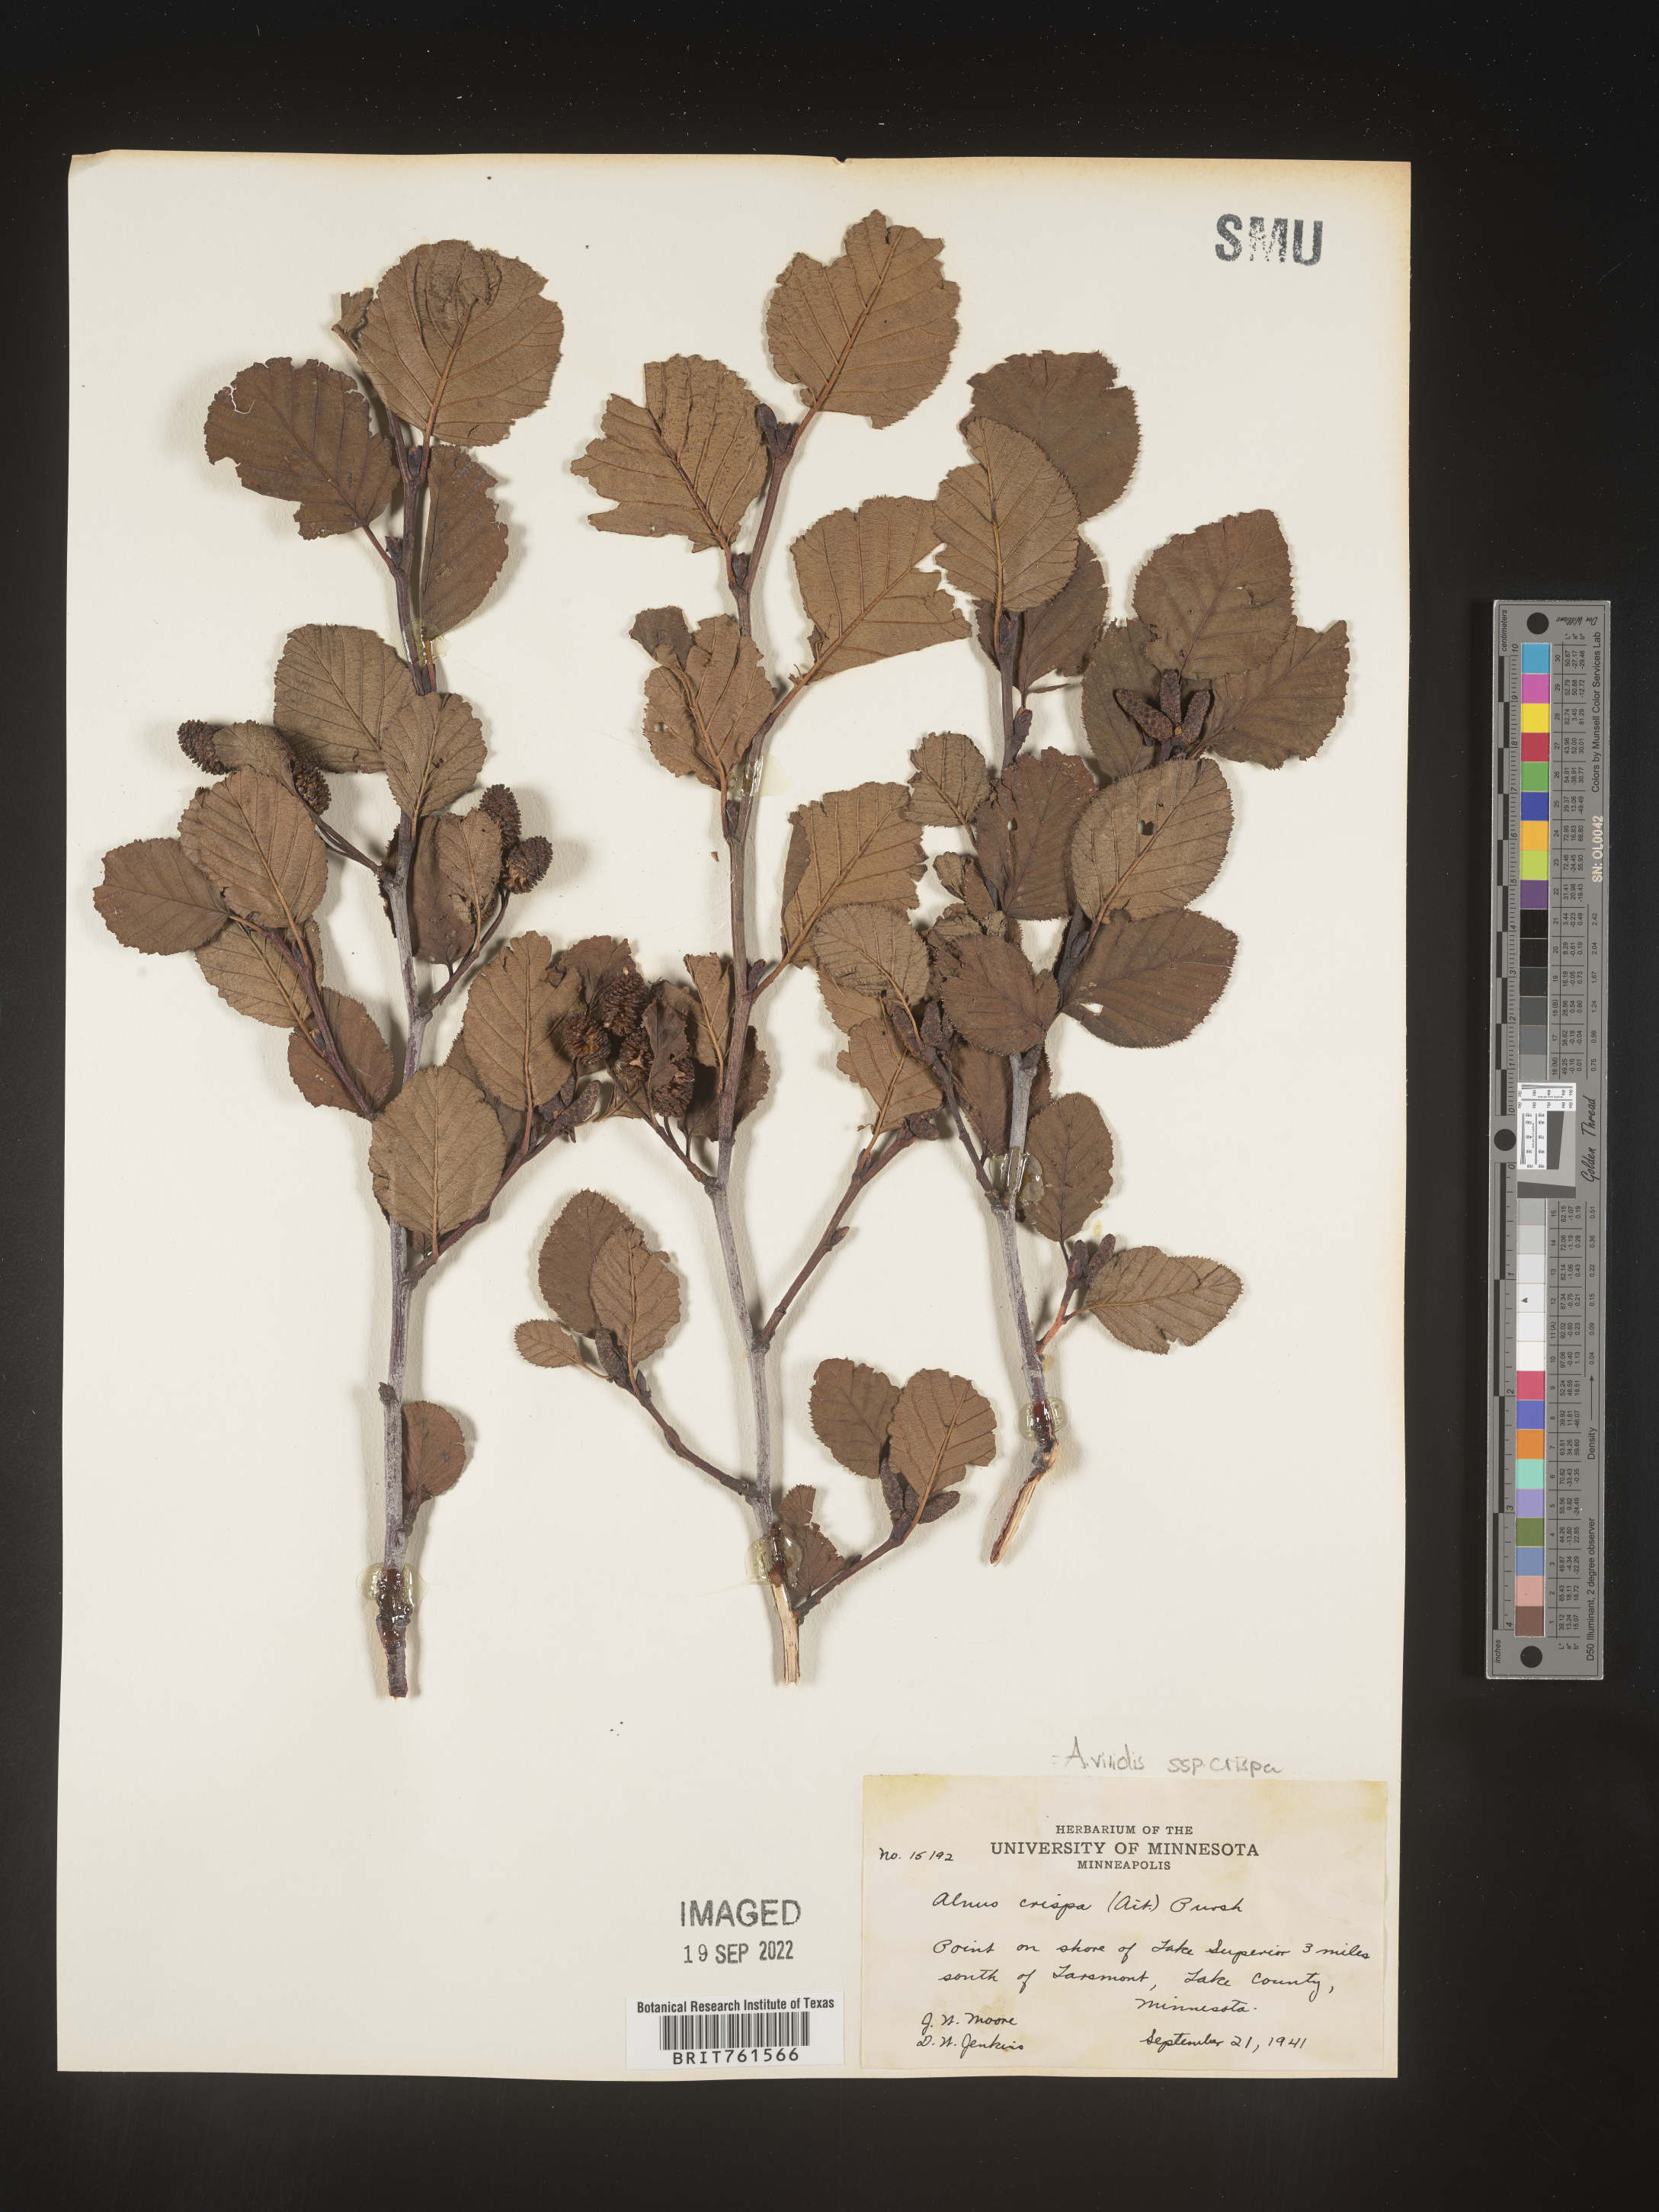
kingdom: Plantae
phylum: Tracheophyta
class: Magnoliopsida
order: Fagales
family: Betulaceae
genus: Alnus
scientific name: Alnus alnobetula
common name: Green alder
